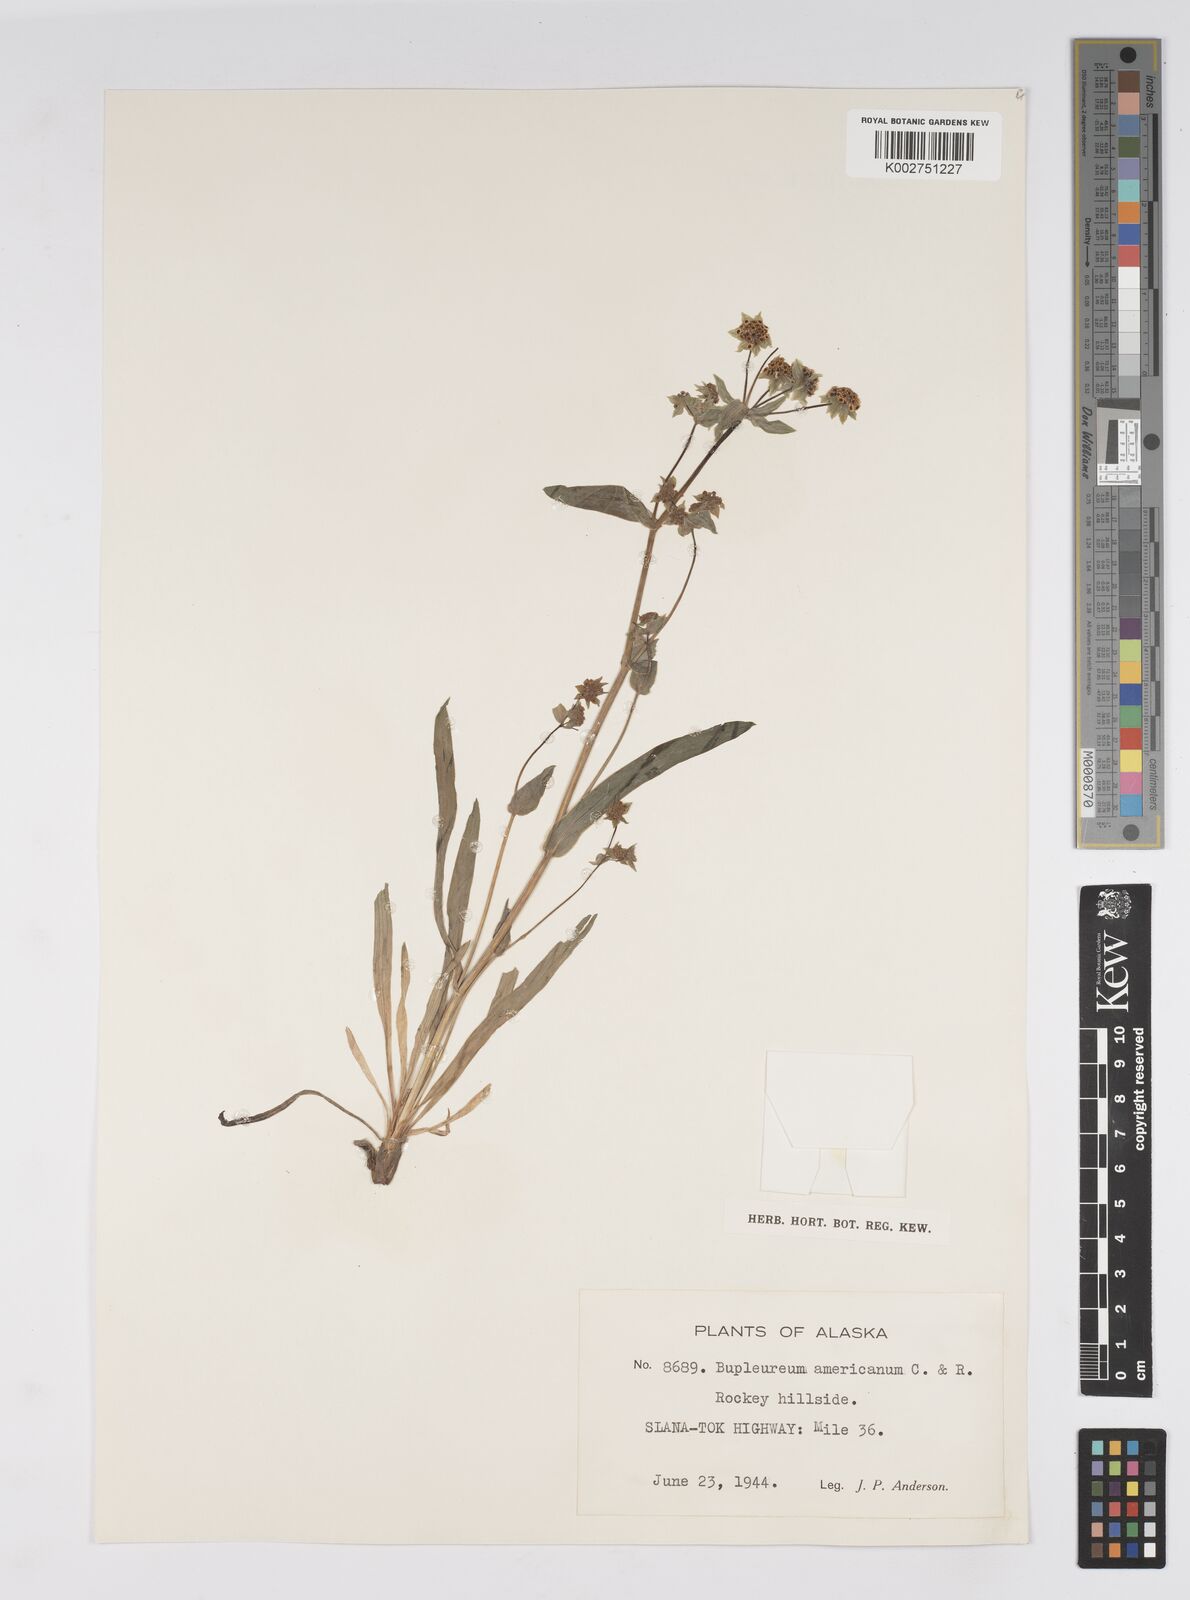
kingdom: Plantae
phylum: Tracheophyta
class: Magnoliopsida
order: Apiales
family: Apiaceae
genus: Bupleurum
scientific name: Bupleurum americanum
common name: American thoroughwax
